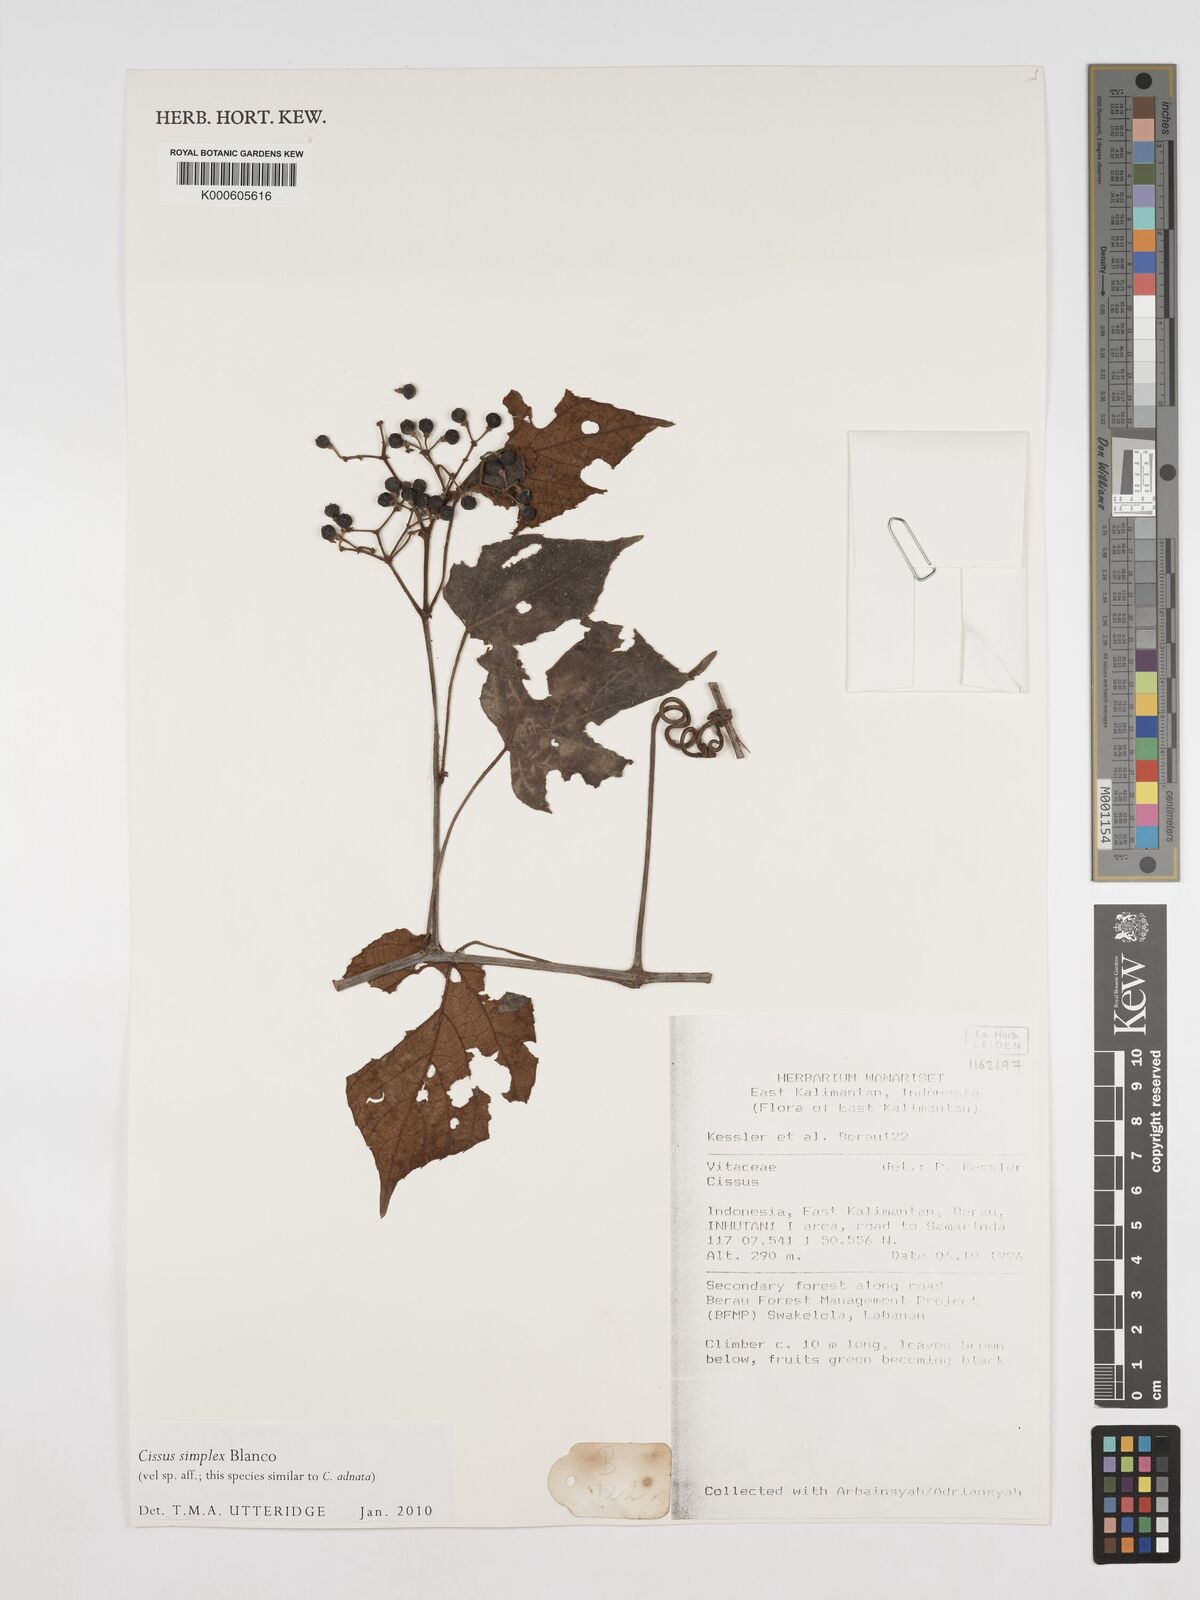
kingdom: Plantae
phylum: Tracheophyta
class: Magnoliopsida
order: Vitales
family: Vitaceae
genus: Cissus
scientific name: Cissus aristata
